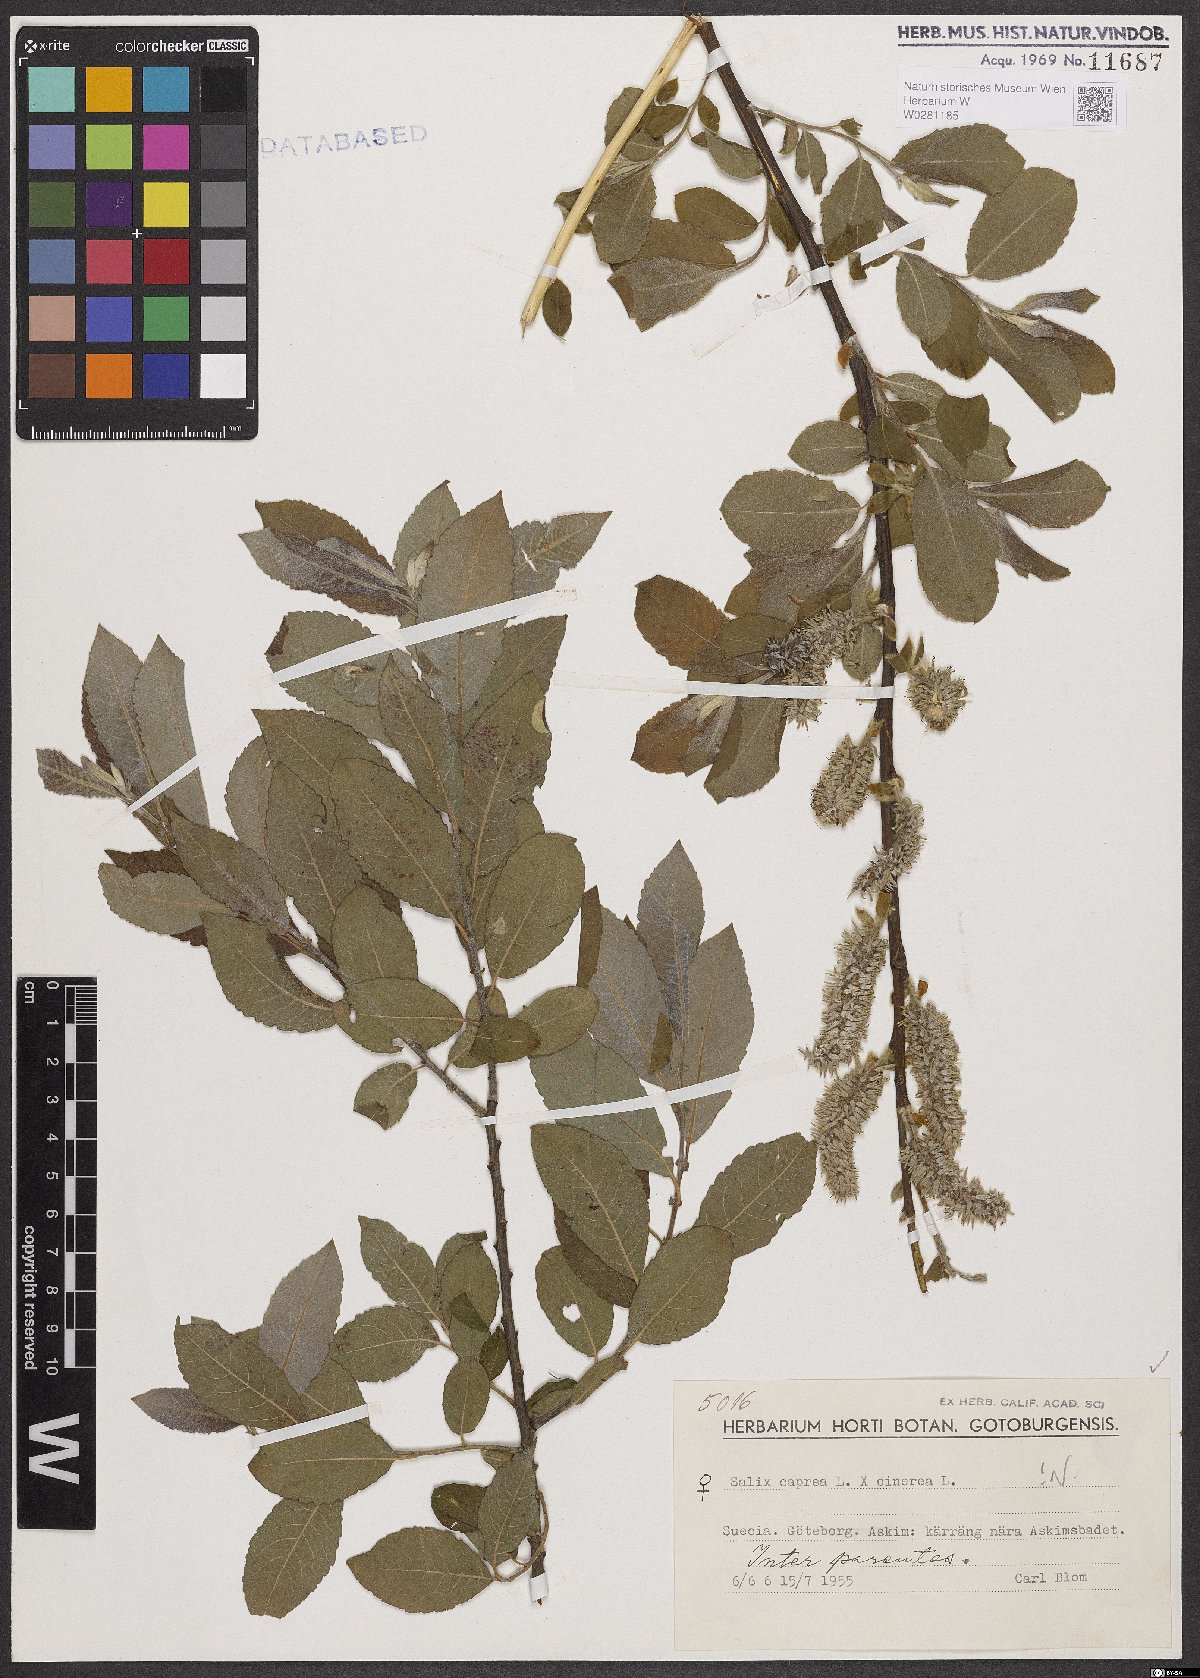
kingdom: Plantae
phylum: Tracheophyta
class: Magnoliopsida
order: Malpighiales
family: Salicaceae
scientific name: Salicaceae
